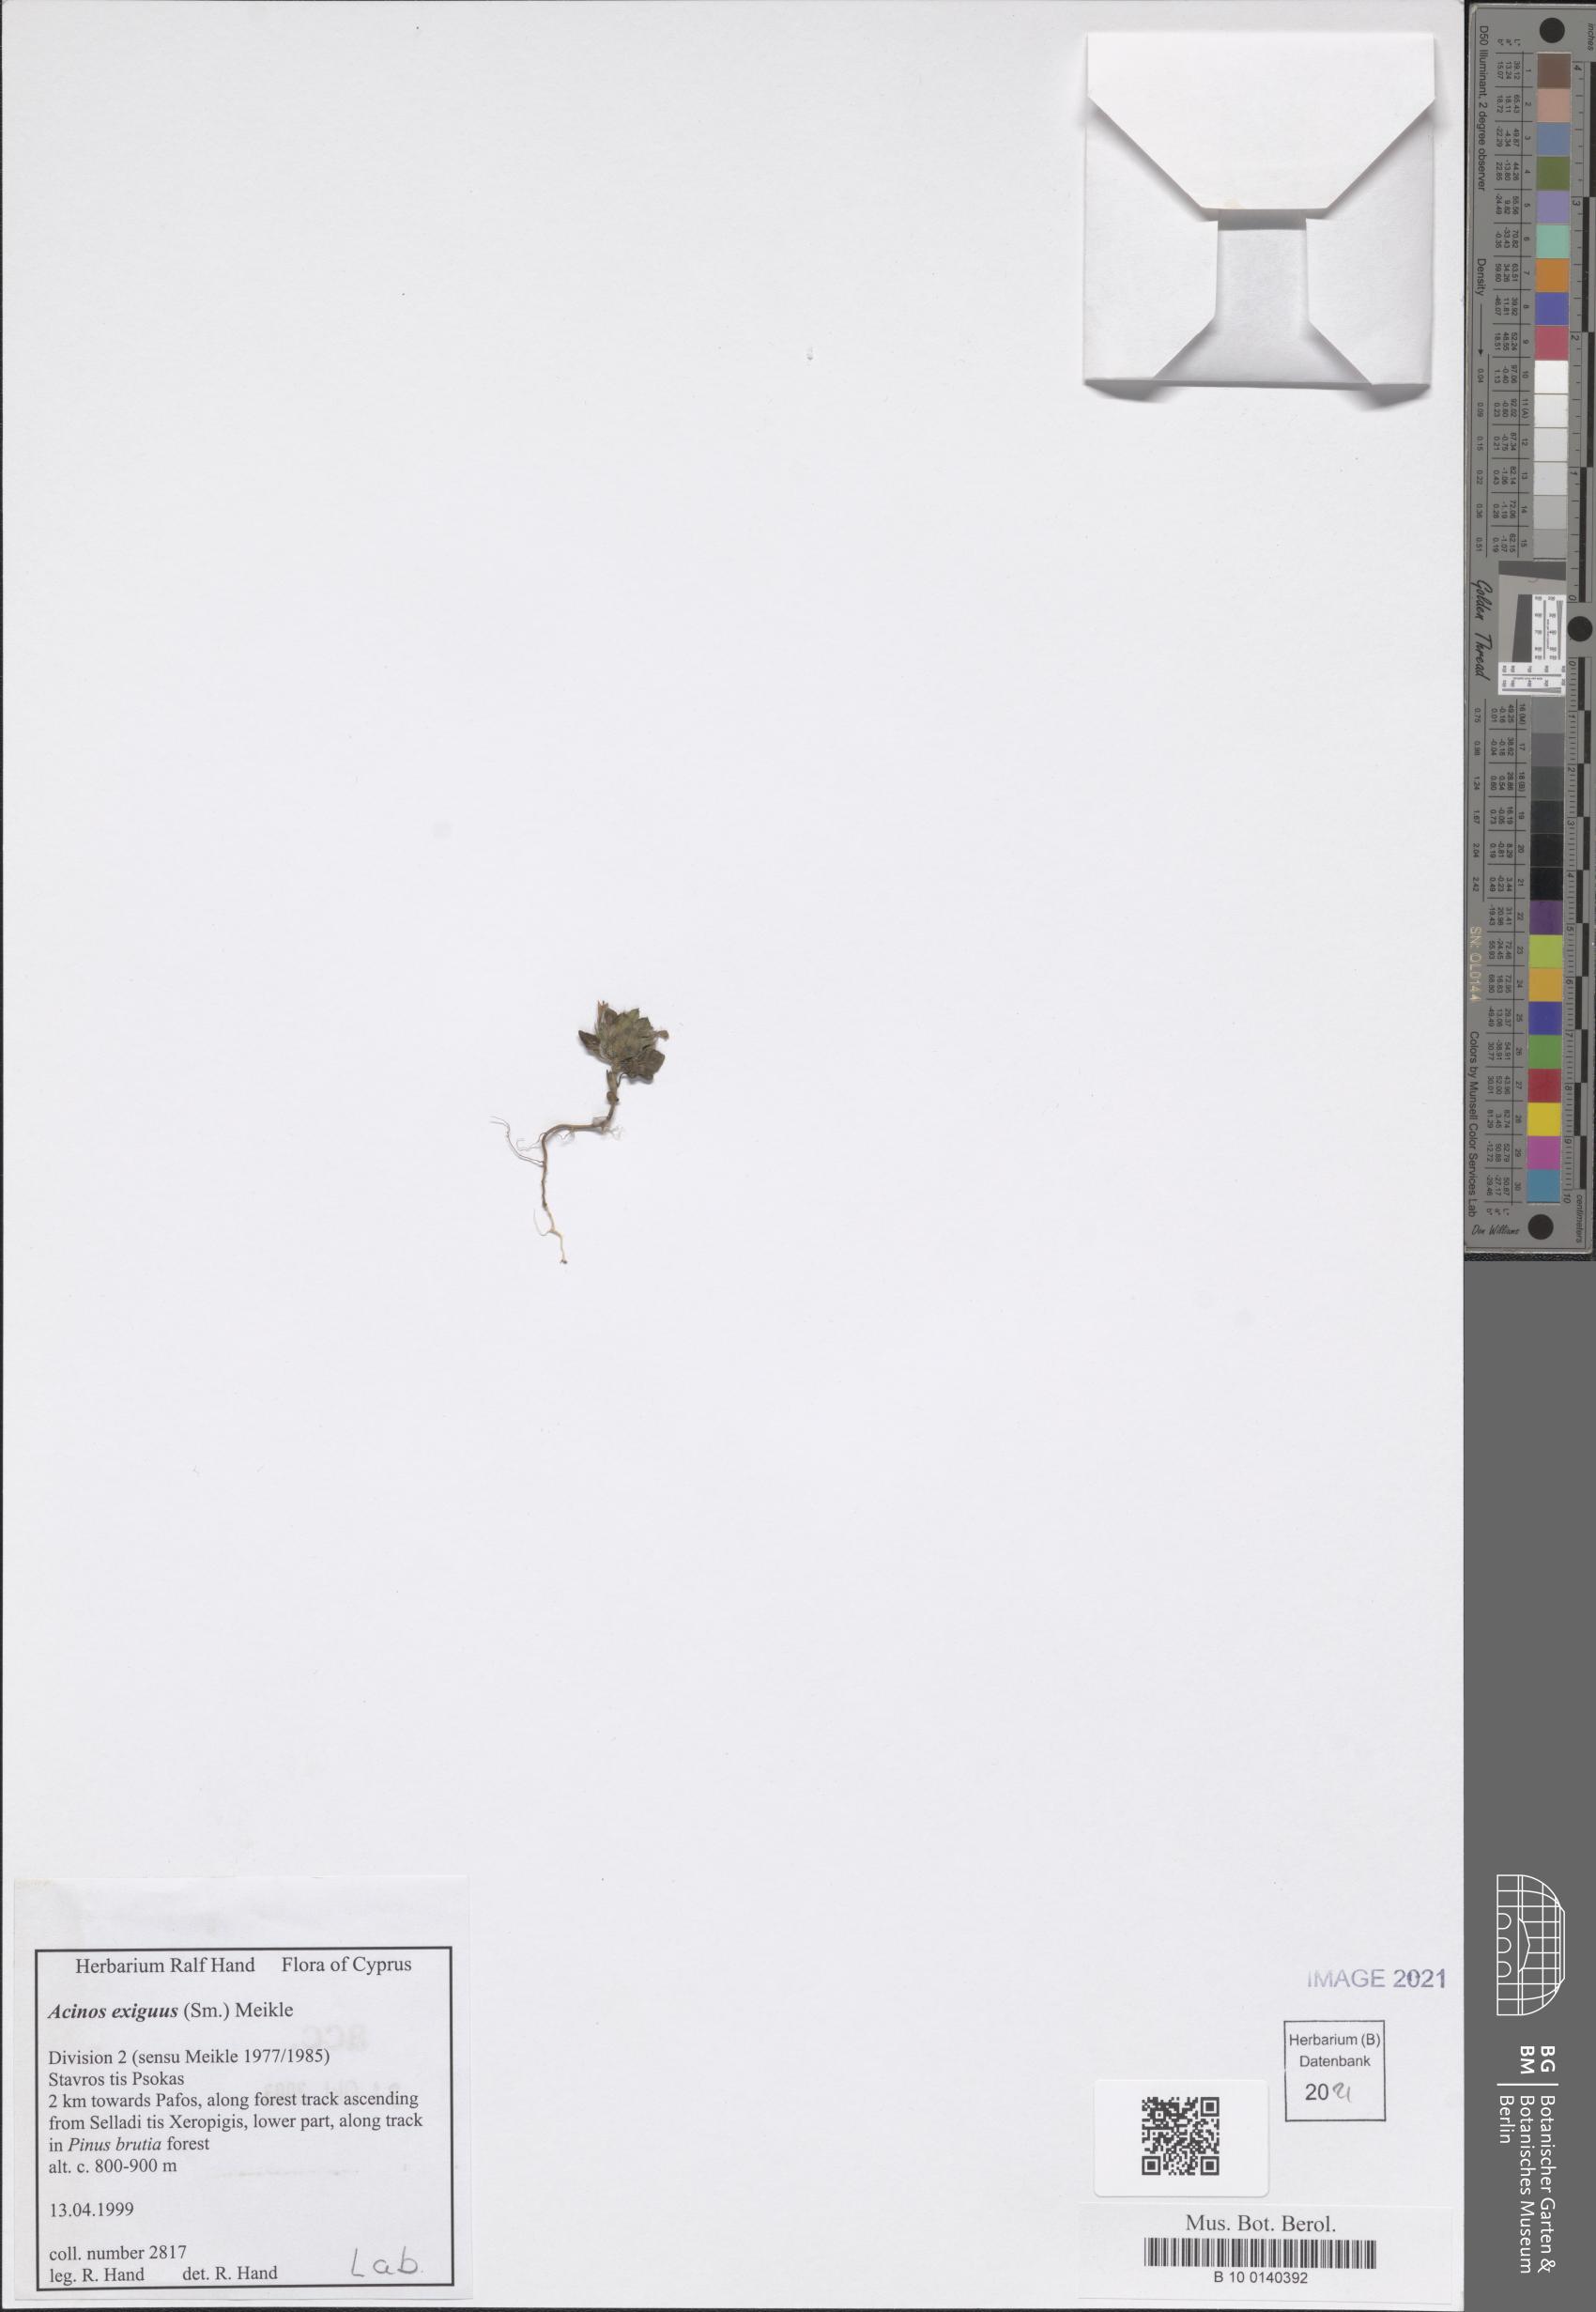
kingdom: Plantae
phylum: Tracheophyta
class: Magnoliopsida
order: Lamiales
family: Lamiaceae
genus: Clinopodium
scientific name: Clinopodium graveolens
